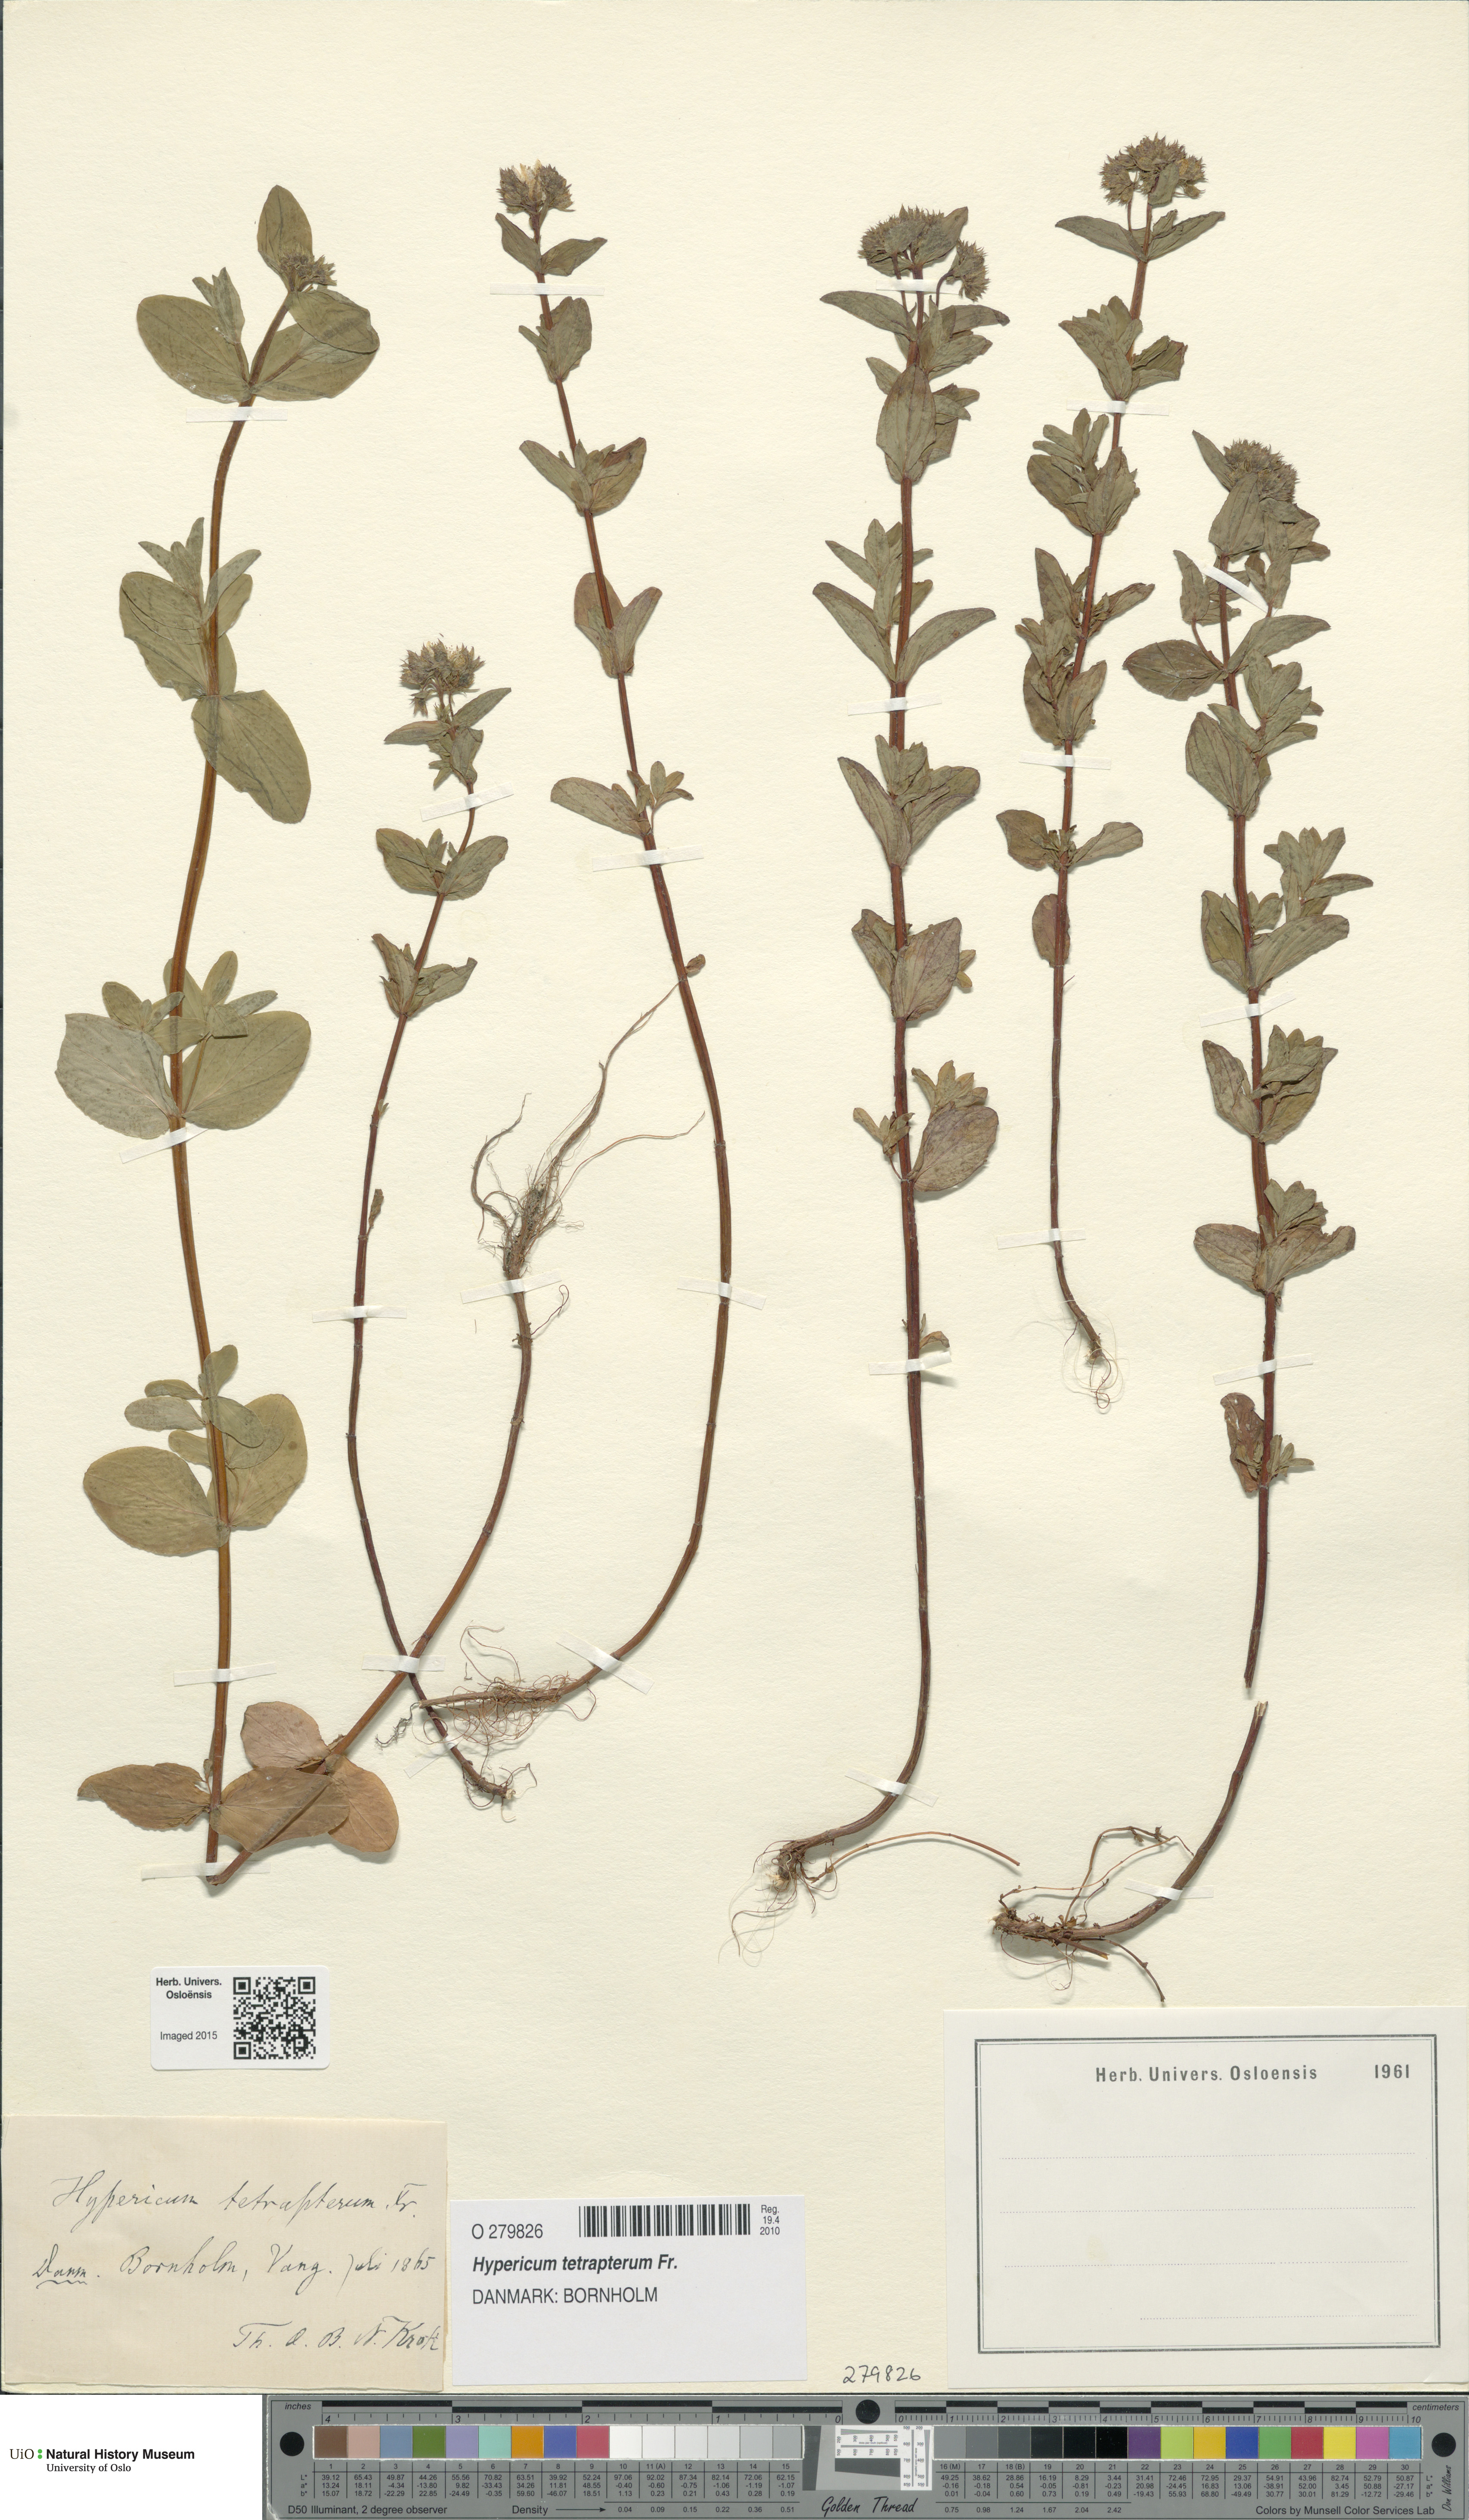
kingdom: Plantae
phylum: Tracheophyta
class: Magnoliopsida
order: Malpighiales
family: Hypericaceae
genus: Hypericum
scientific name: Hypericum tetrapterum
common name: Square-stalked st. john's-wort
